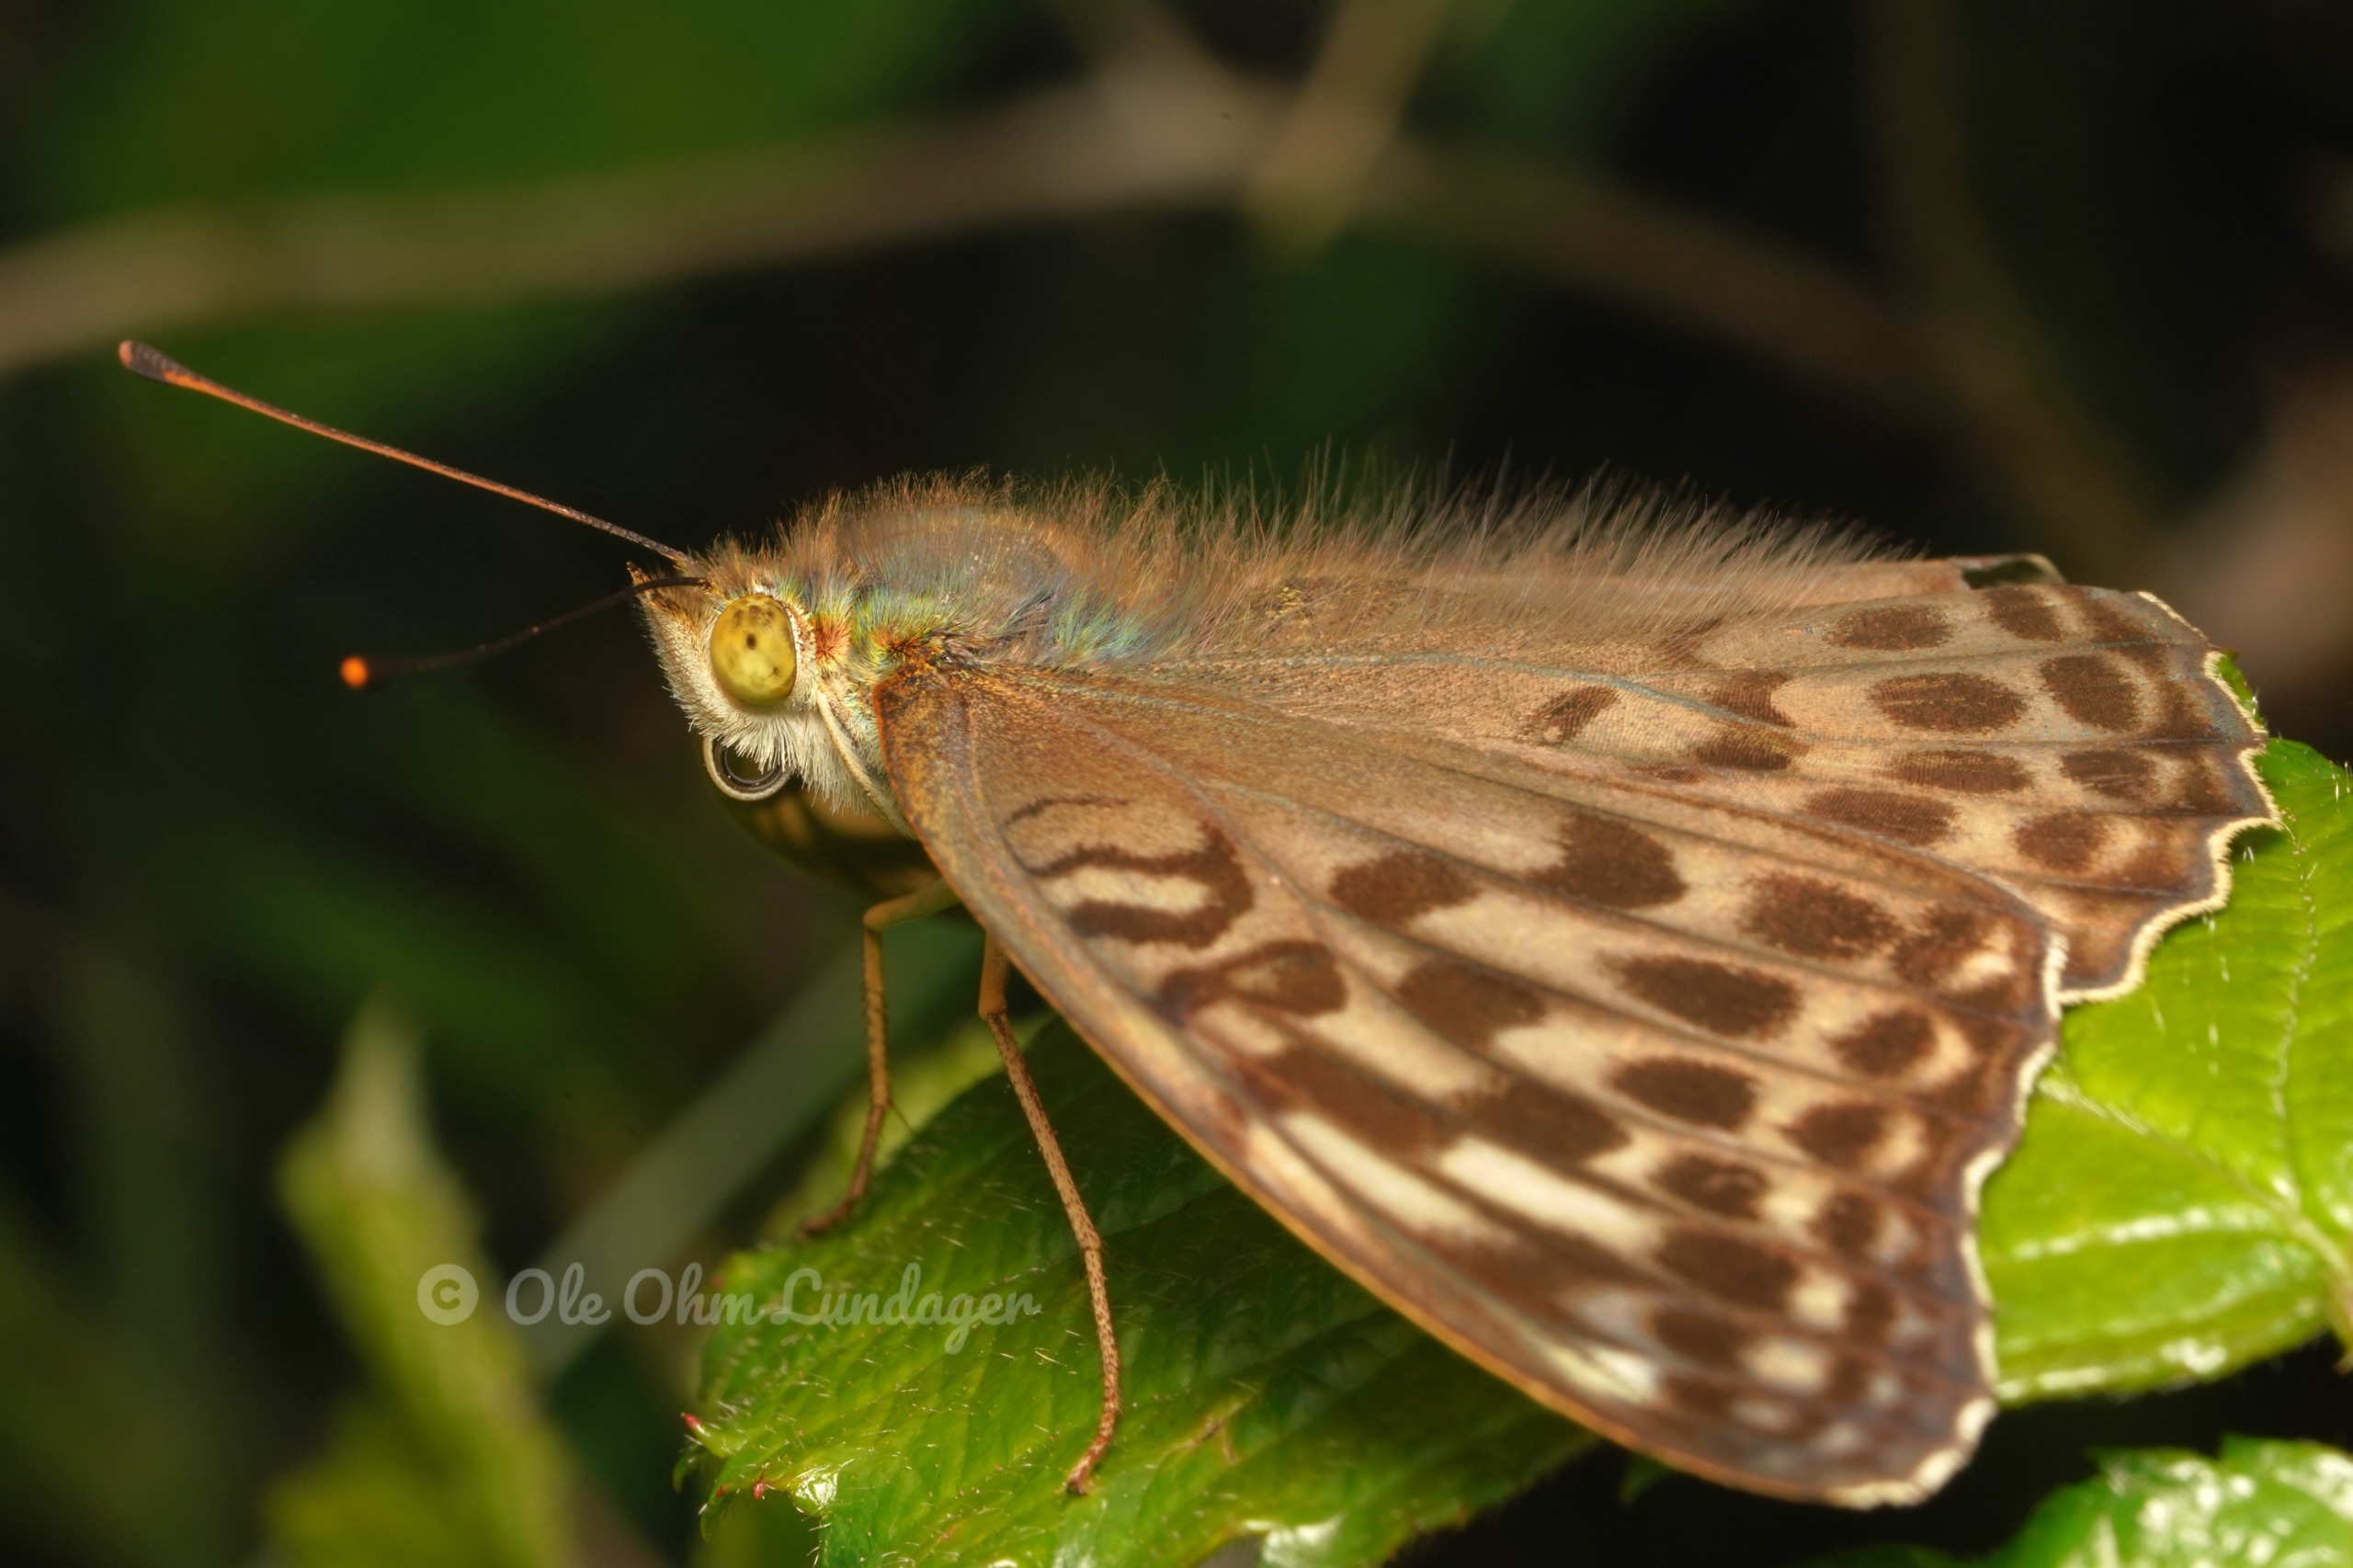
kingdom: Animalia
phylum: Arthropoda
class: Insecta
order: Lepidoptera
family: Nymphalidae
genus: Argynnis
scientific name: Argynnis paphia
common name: Kejserkåbe
